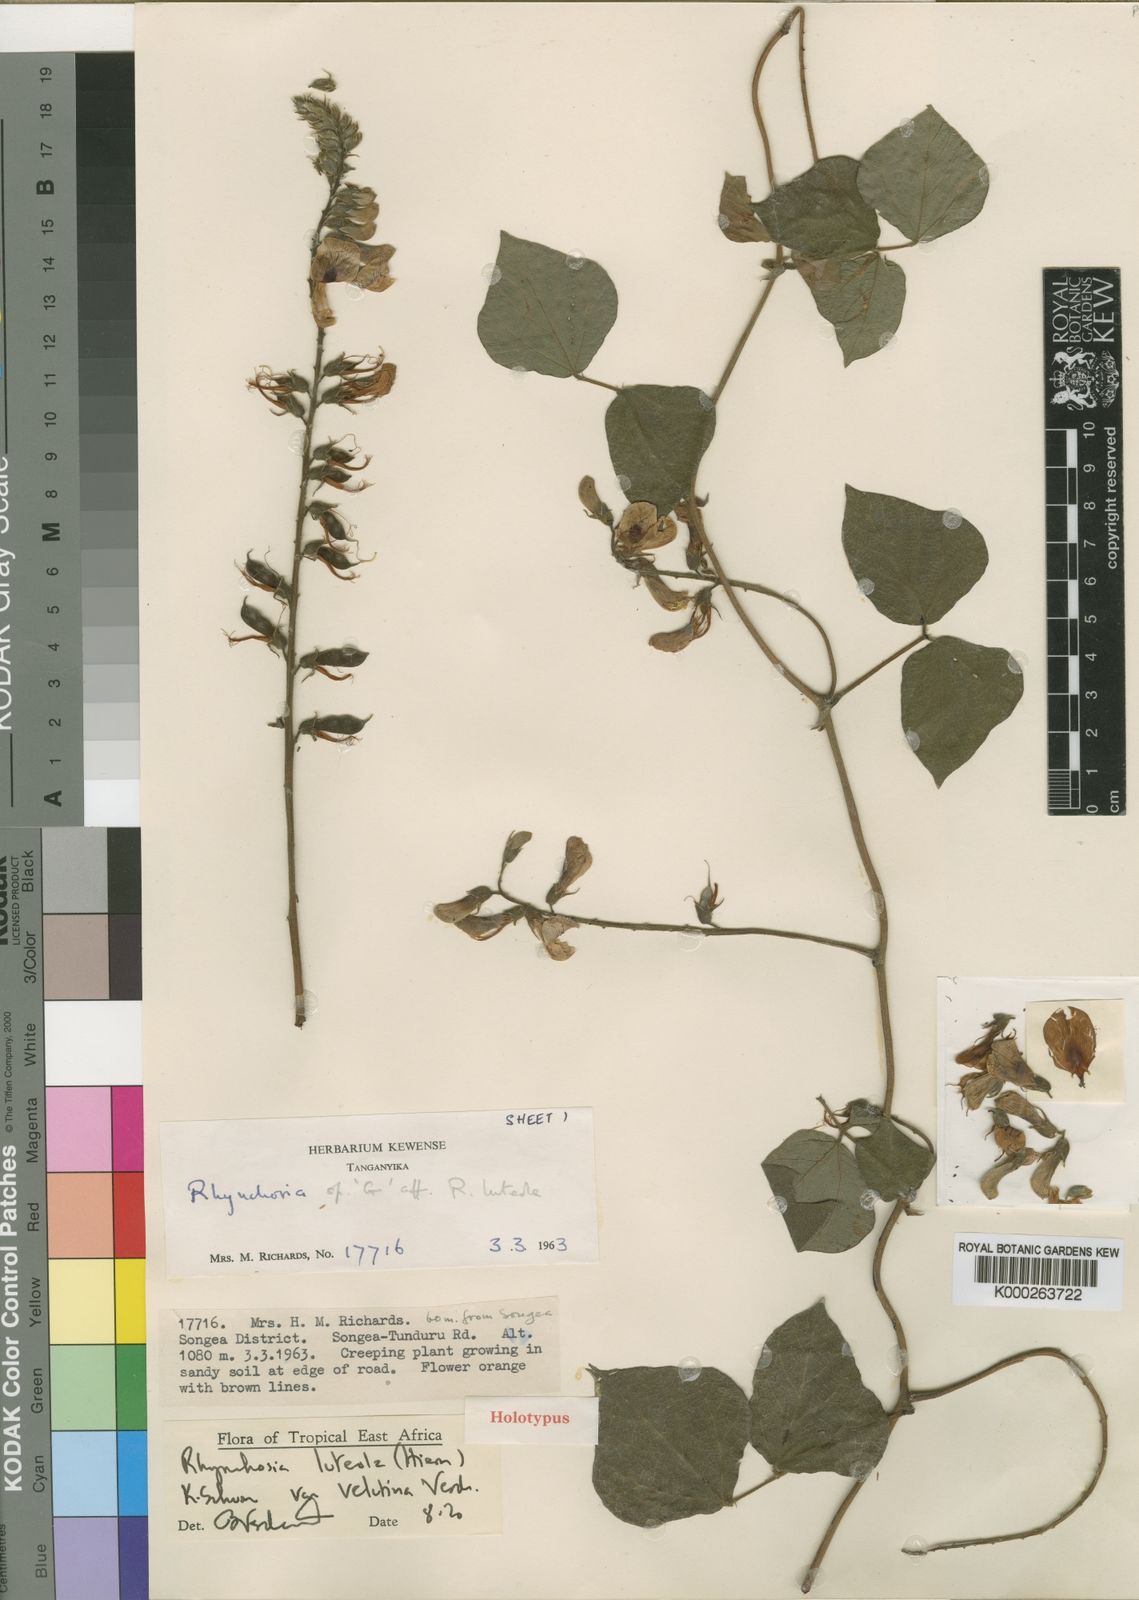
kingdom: Plantae
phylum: Tracheophyta
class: Magnoliopsida
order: Fabales
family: Fabaceae
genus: Rhynchosia
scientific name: Rhynchosia luteola
